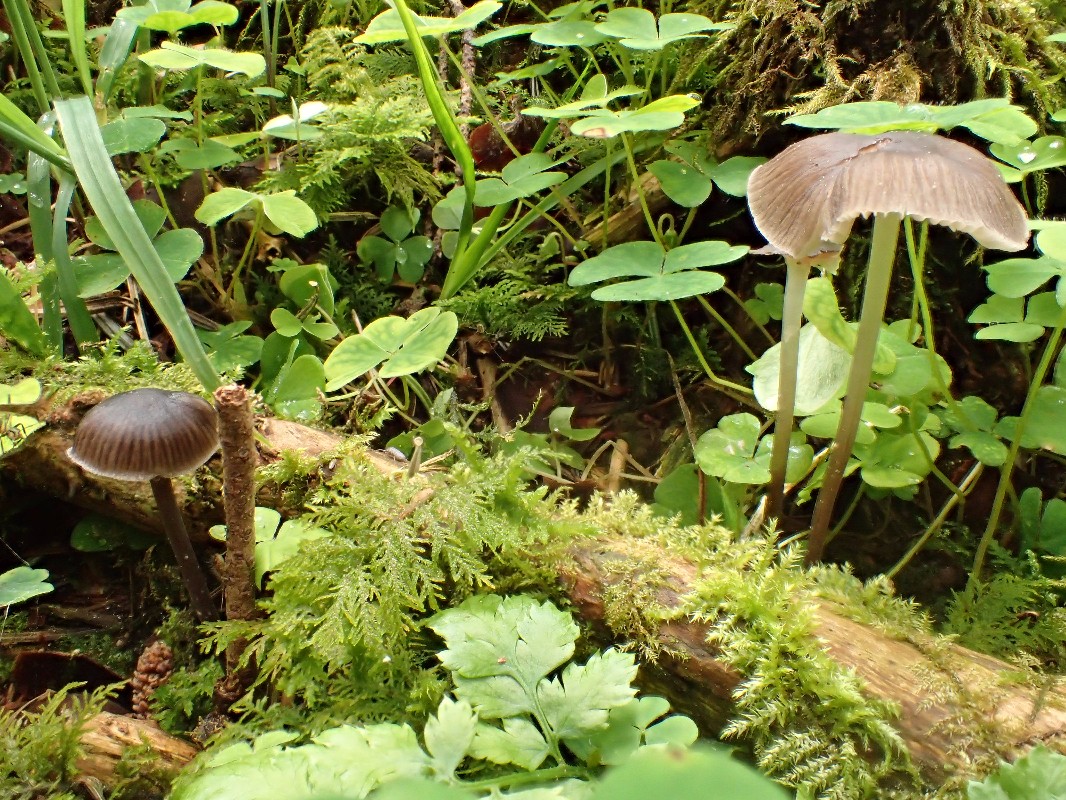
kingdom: Fungi
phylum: Basidiomycota
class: Agaricomycetes
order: Agaricales
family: Mycenaceae
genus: Mycena
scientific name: Mycena
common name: huesvamp
